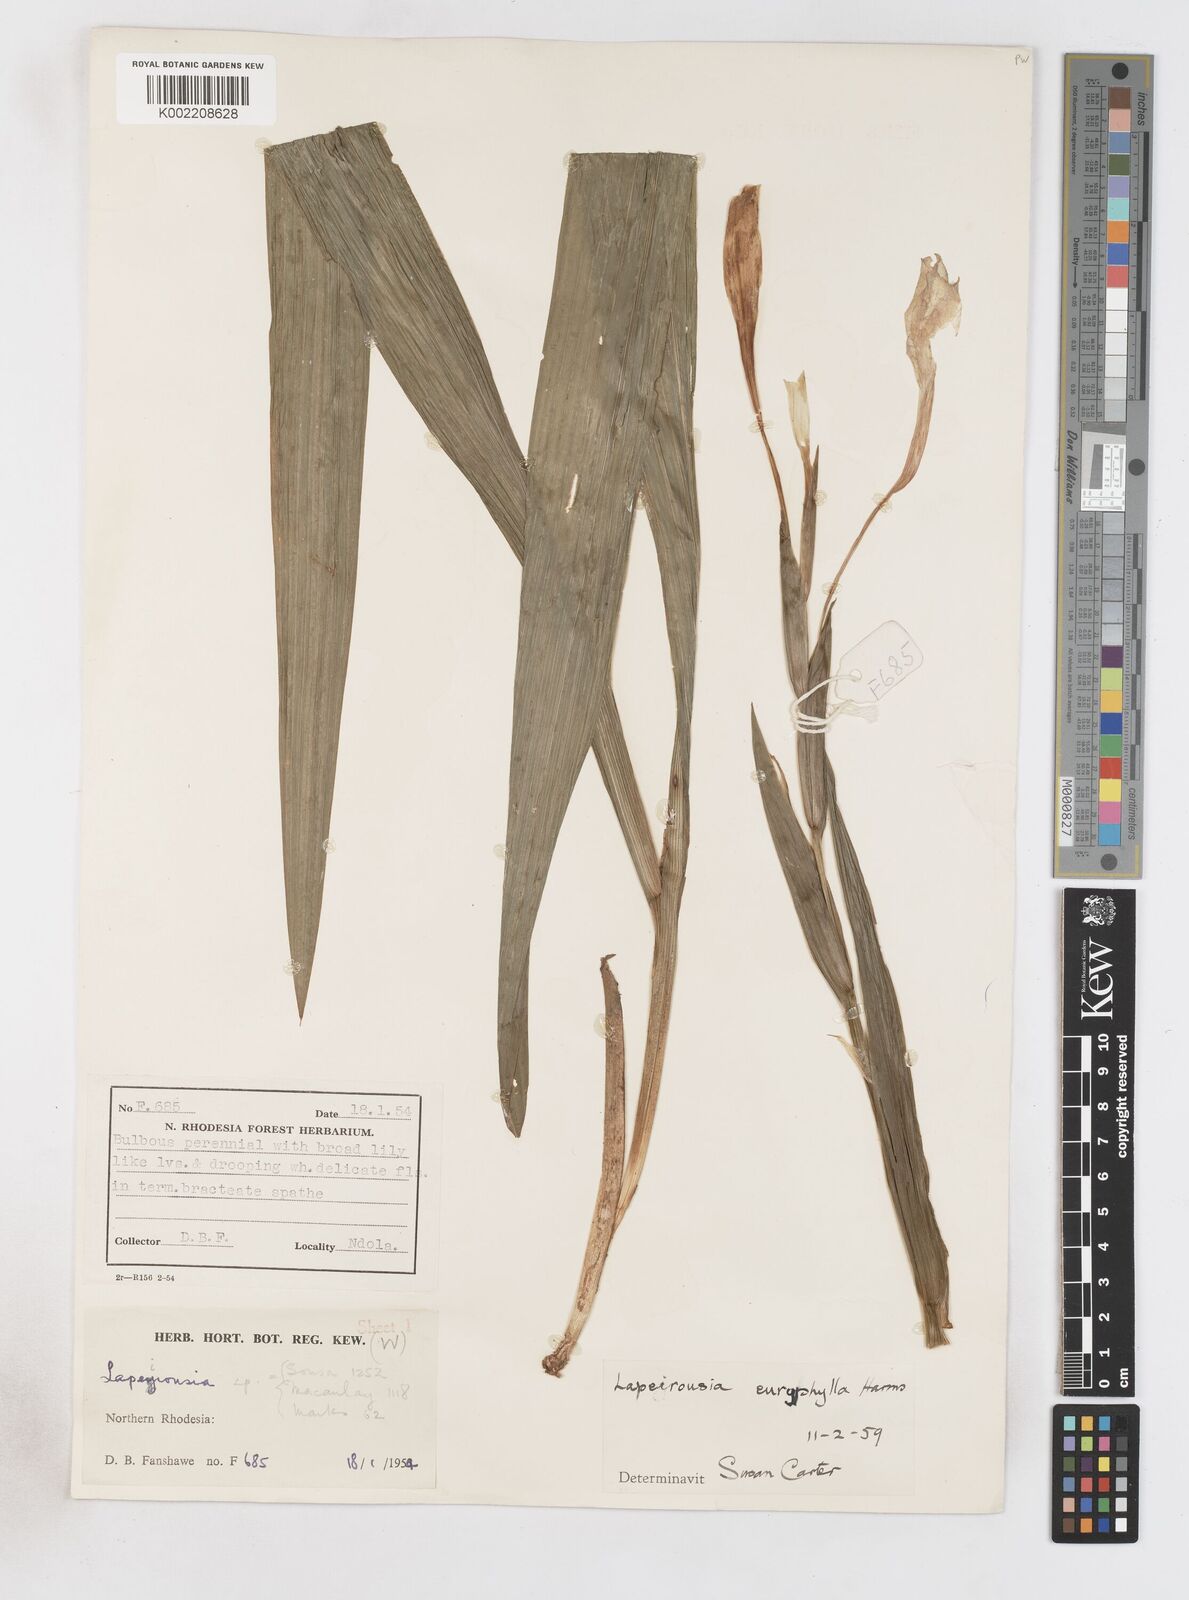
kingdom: Plantae
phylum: Tracheophyta
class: Liliopsida
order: Asparagales
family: Iridaceae
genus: Savannosiphon
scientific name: Savannosiphon euryphylla
